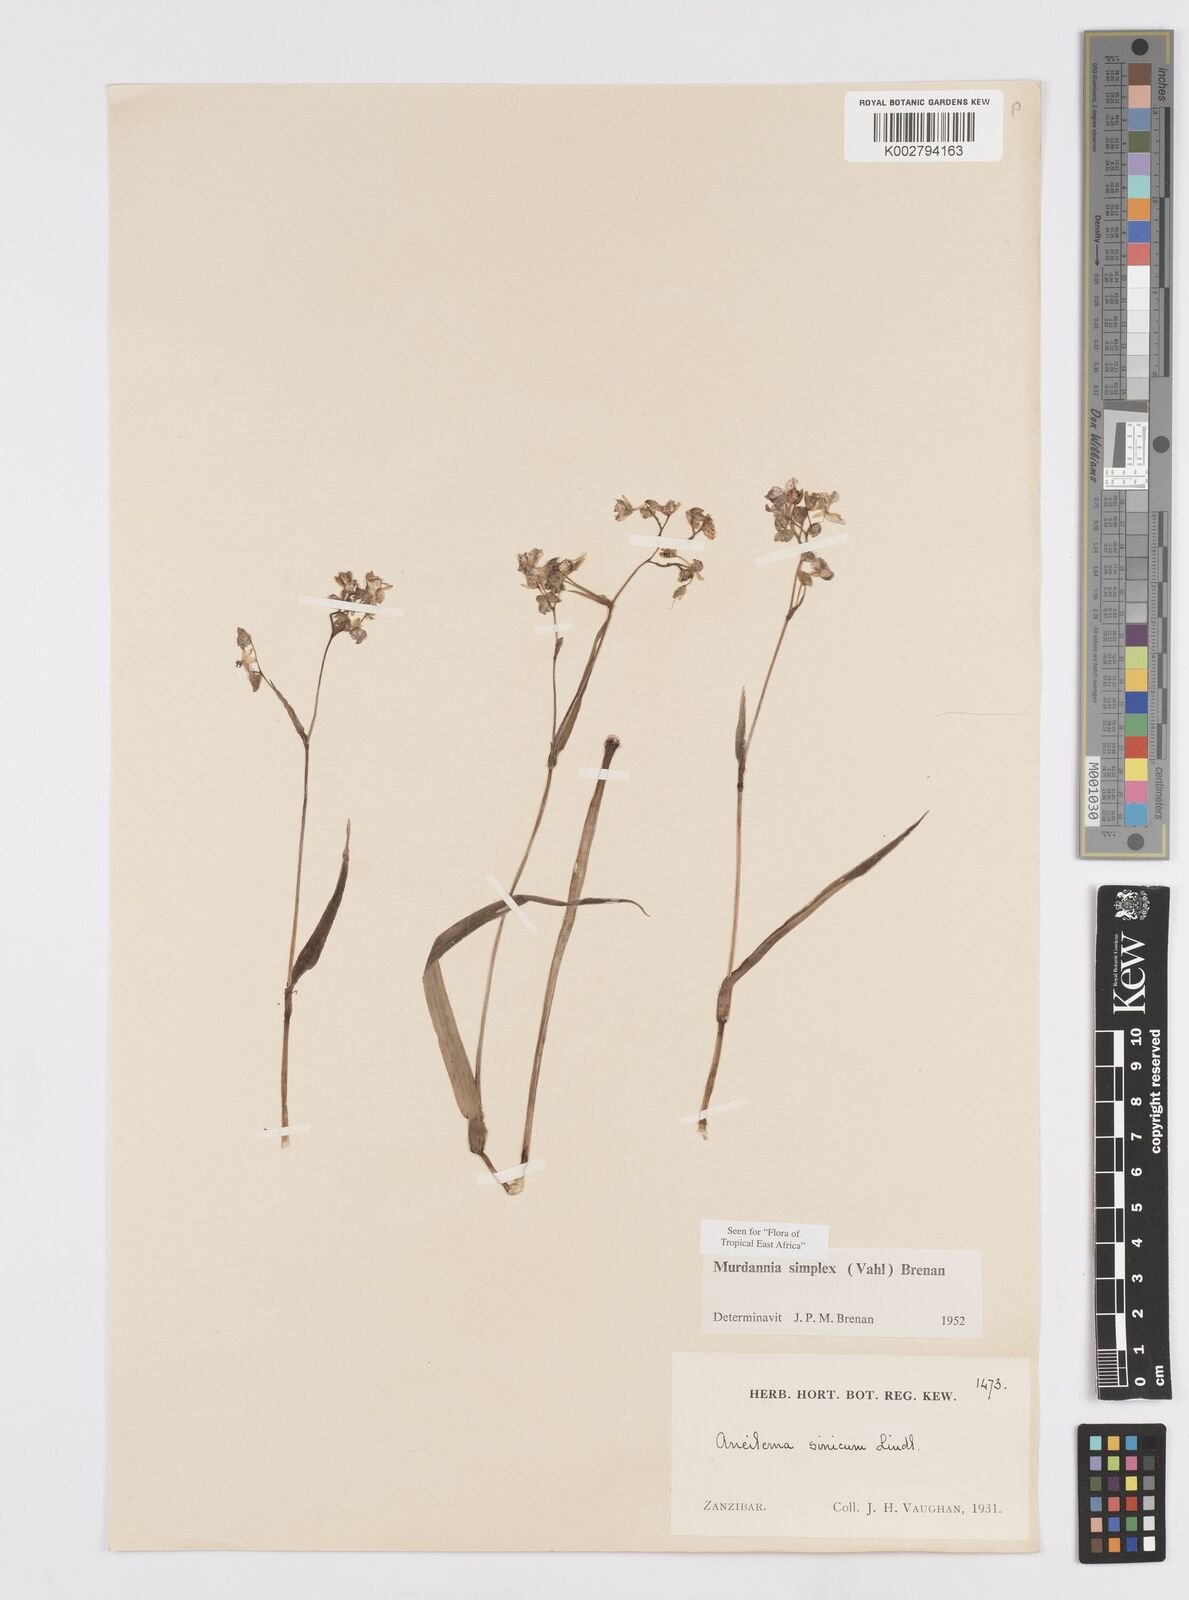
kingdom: Plantae
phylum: Tracheophyta
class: Liliopsida
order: Commelinales
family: Commelinaceae
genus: Murdannia
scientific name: Murdannia simplex
